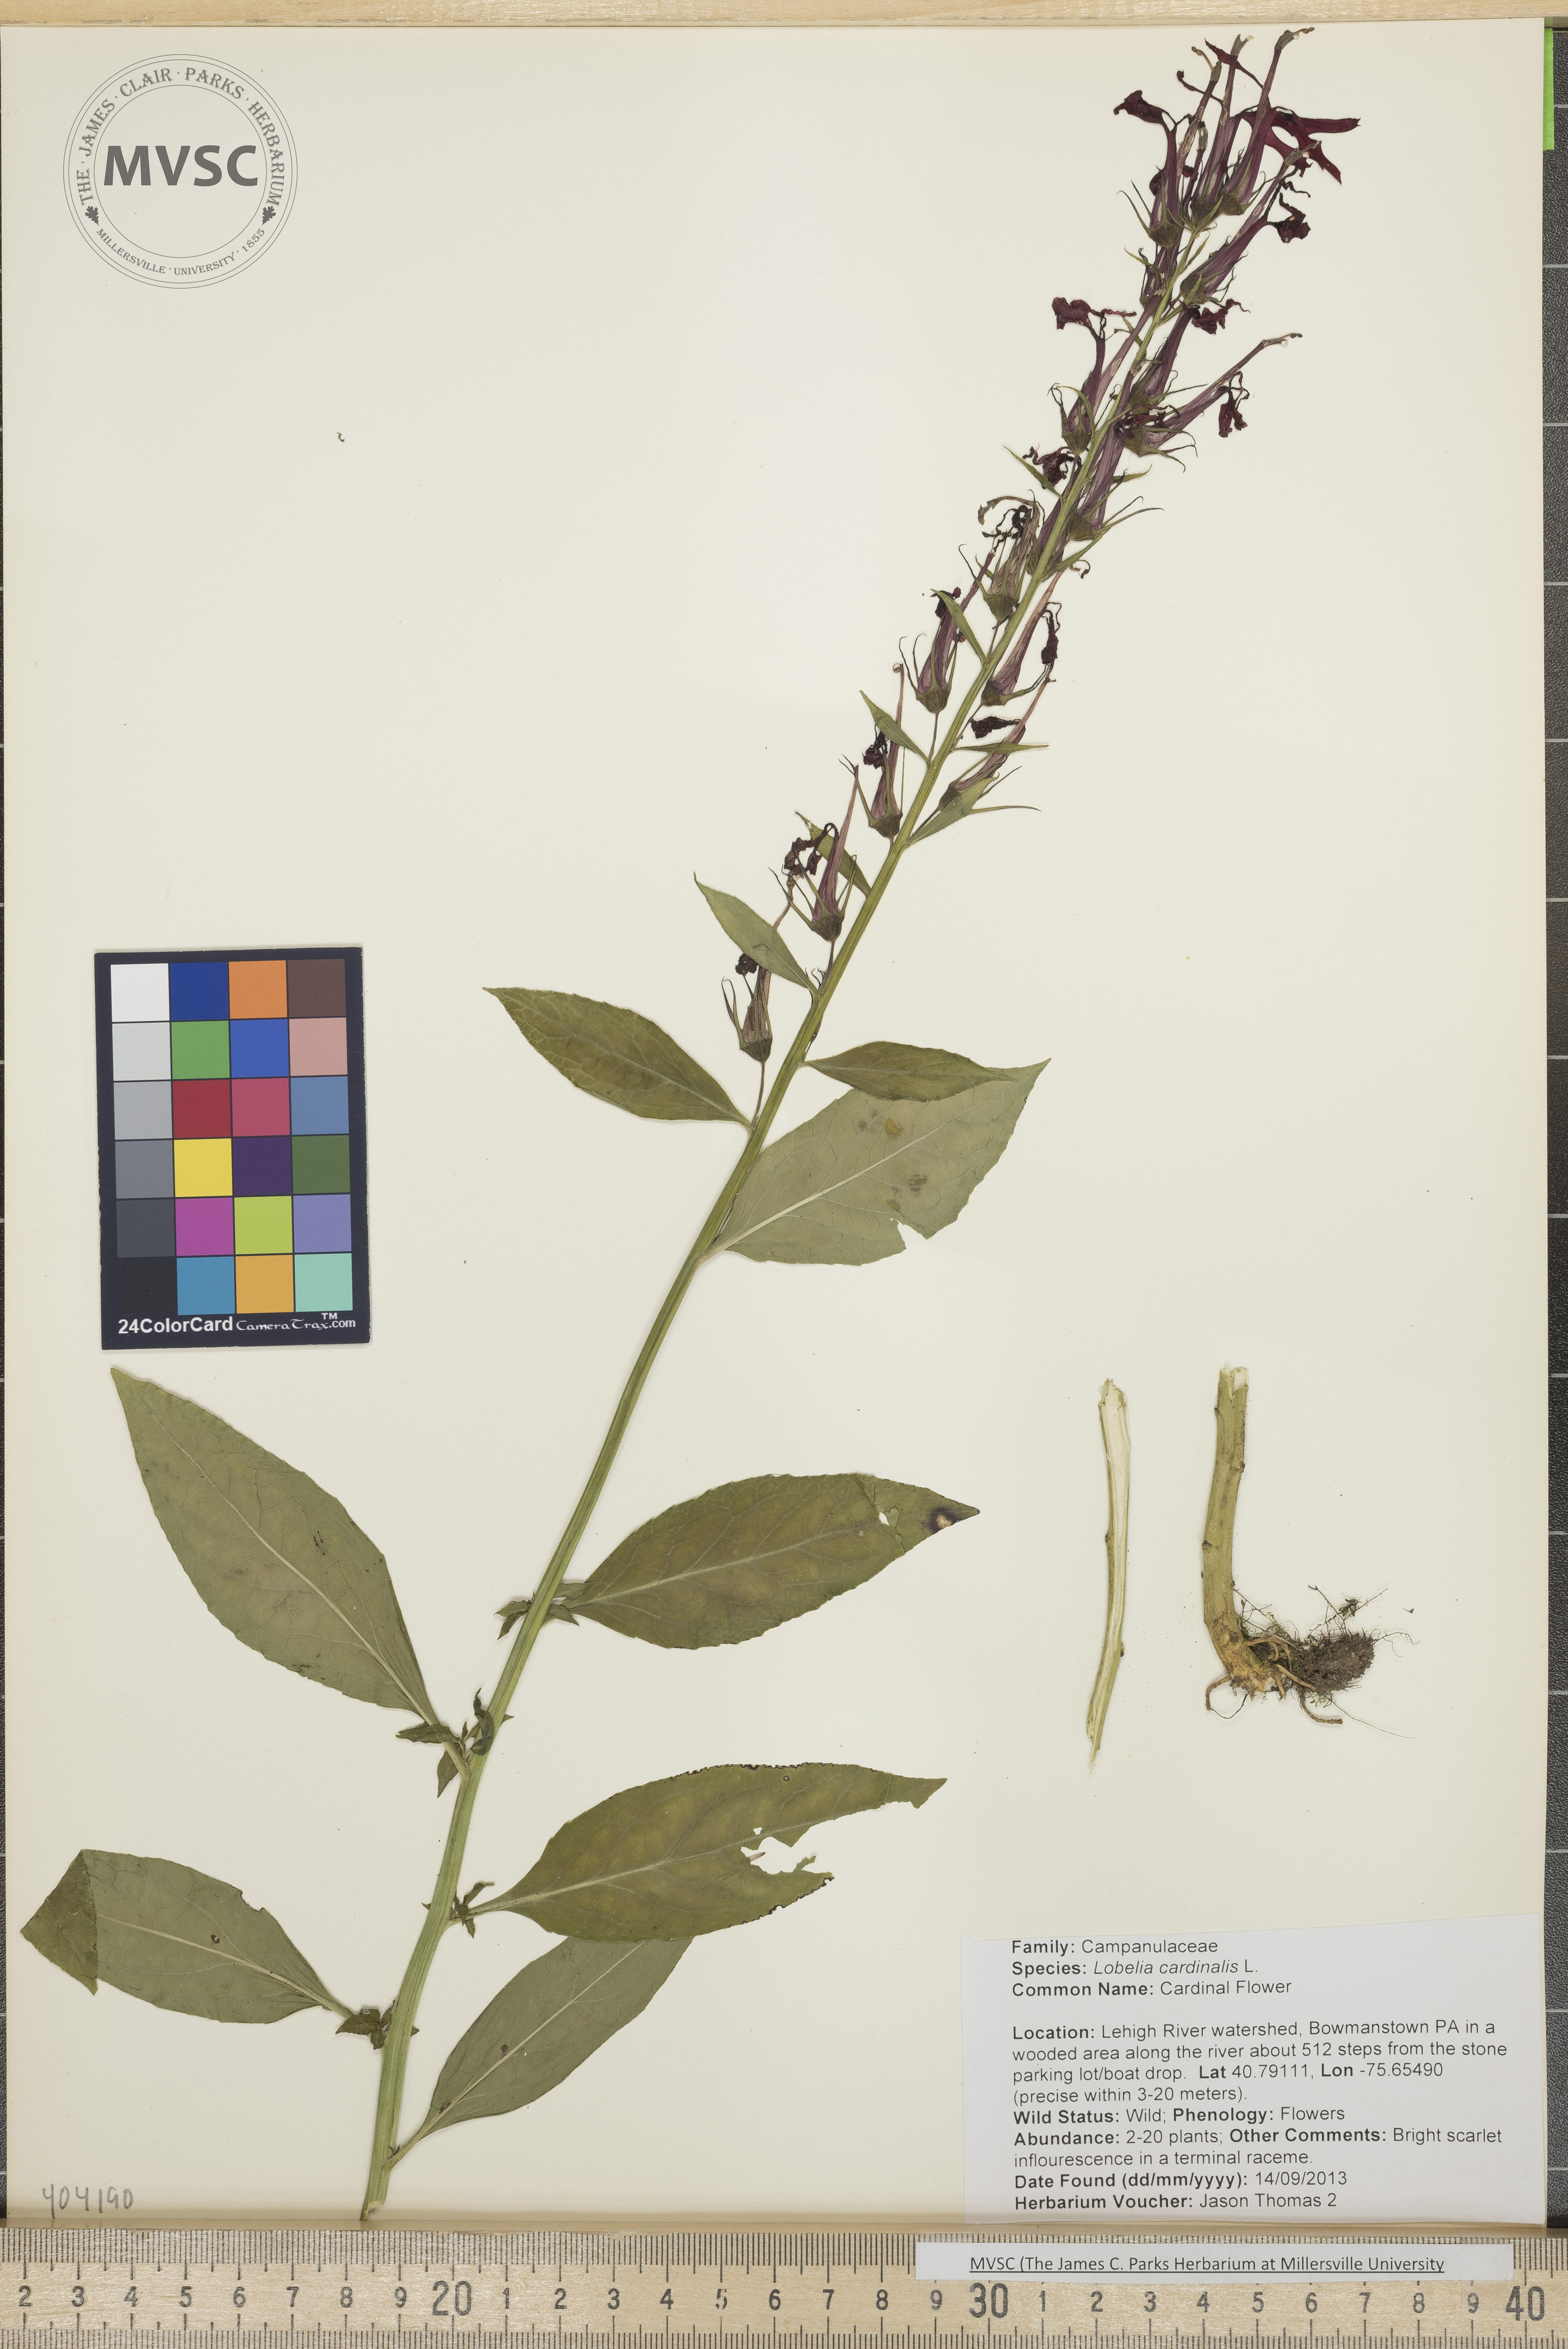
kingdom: Plantae
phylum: Tracheophyta
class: Magnoliopsida
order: Asterales
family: Campanulaceae
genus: Lobelia
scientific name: Lobelia cardinalis
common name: Cardinal flower
